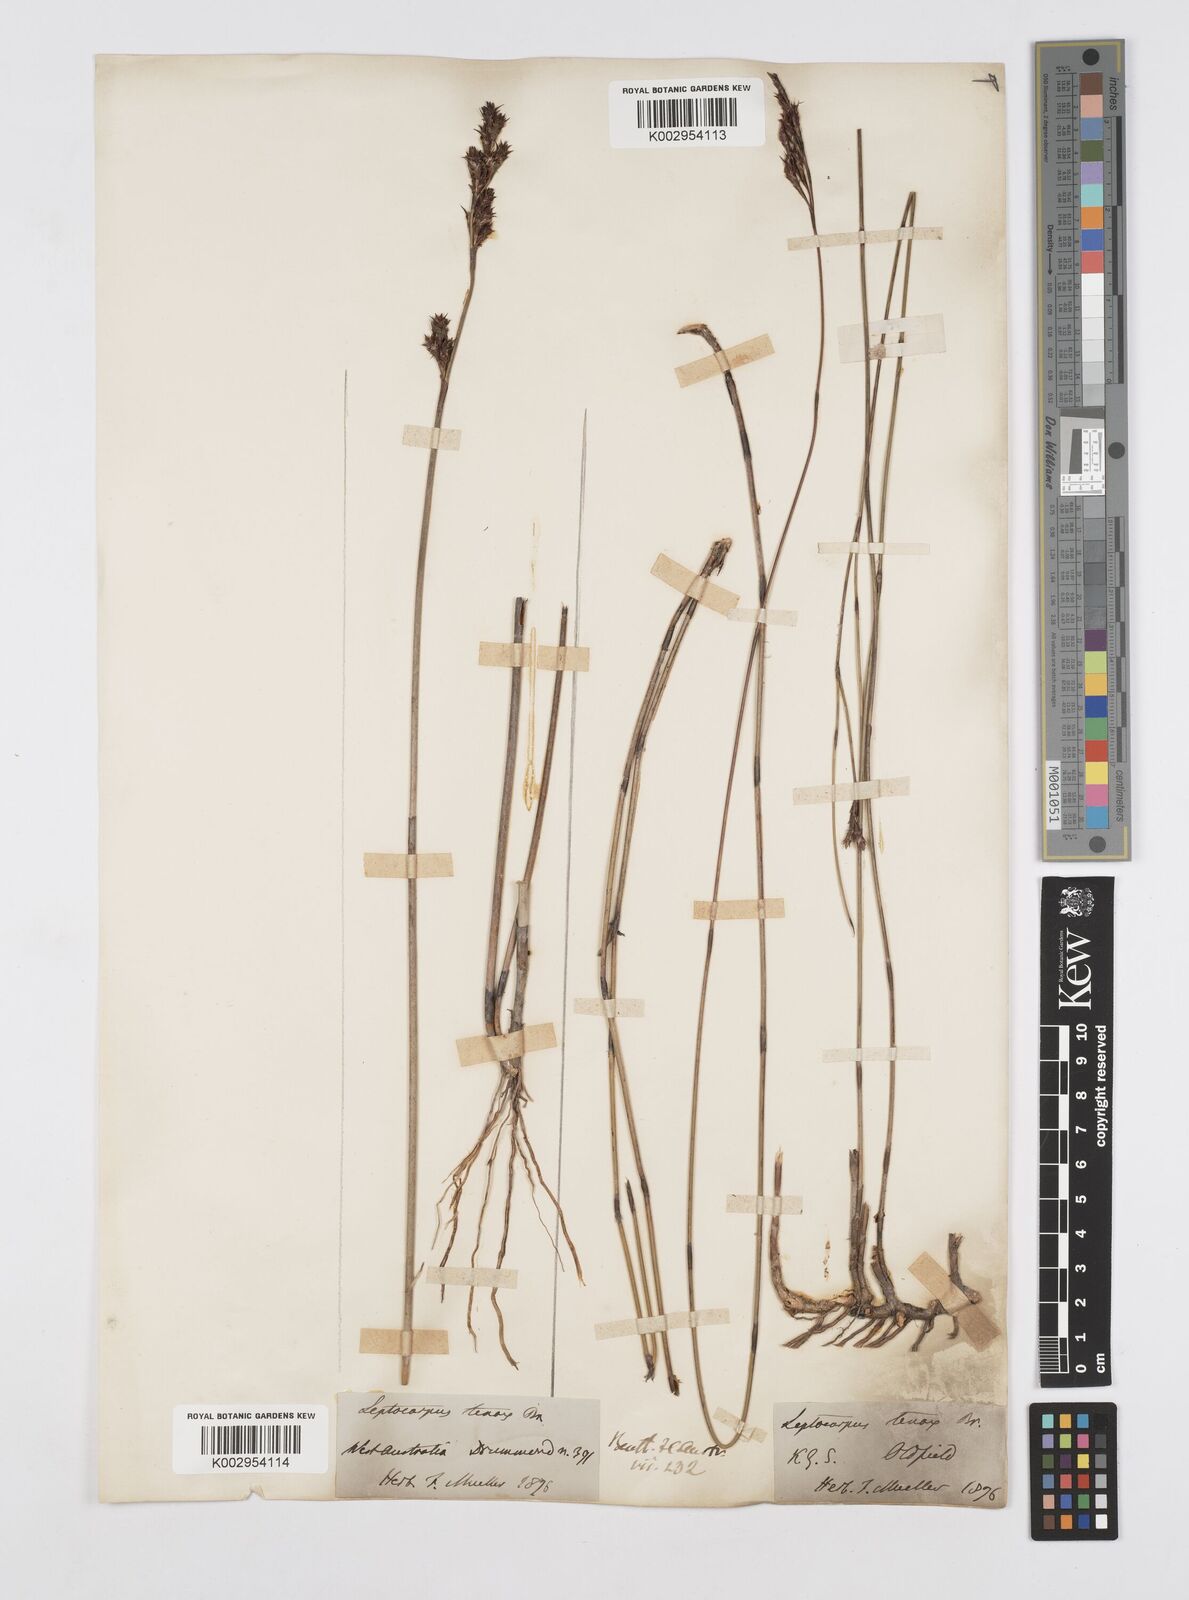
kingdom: Plantae
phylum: Tracheophyta
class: Liliopsida
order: Poales
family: Restionaceae
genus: Leptocarpus
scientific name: Leptocarpus tenax
